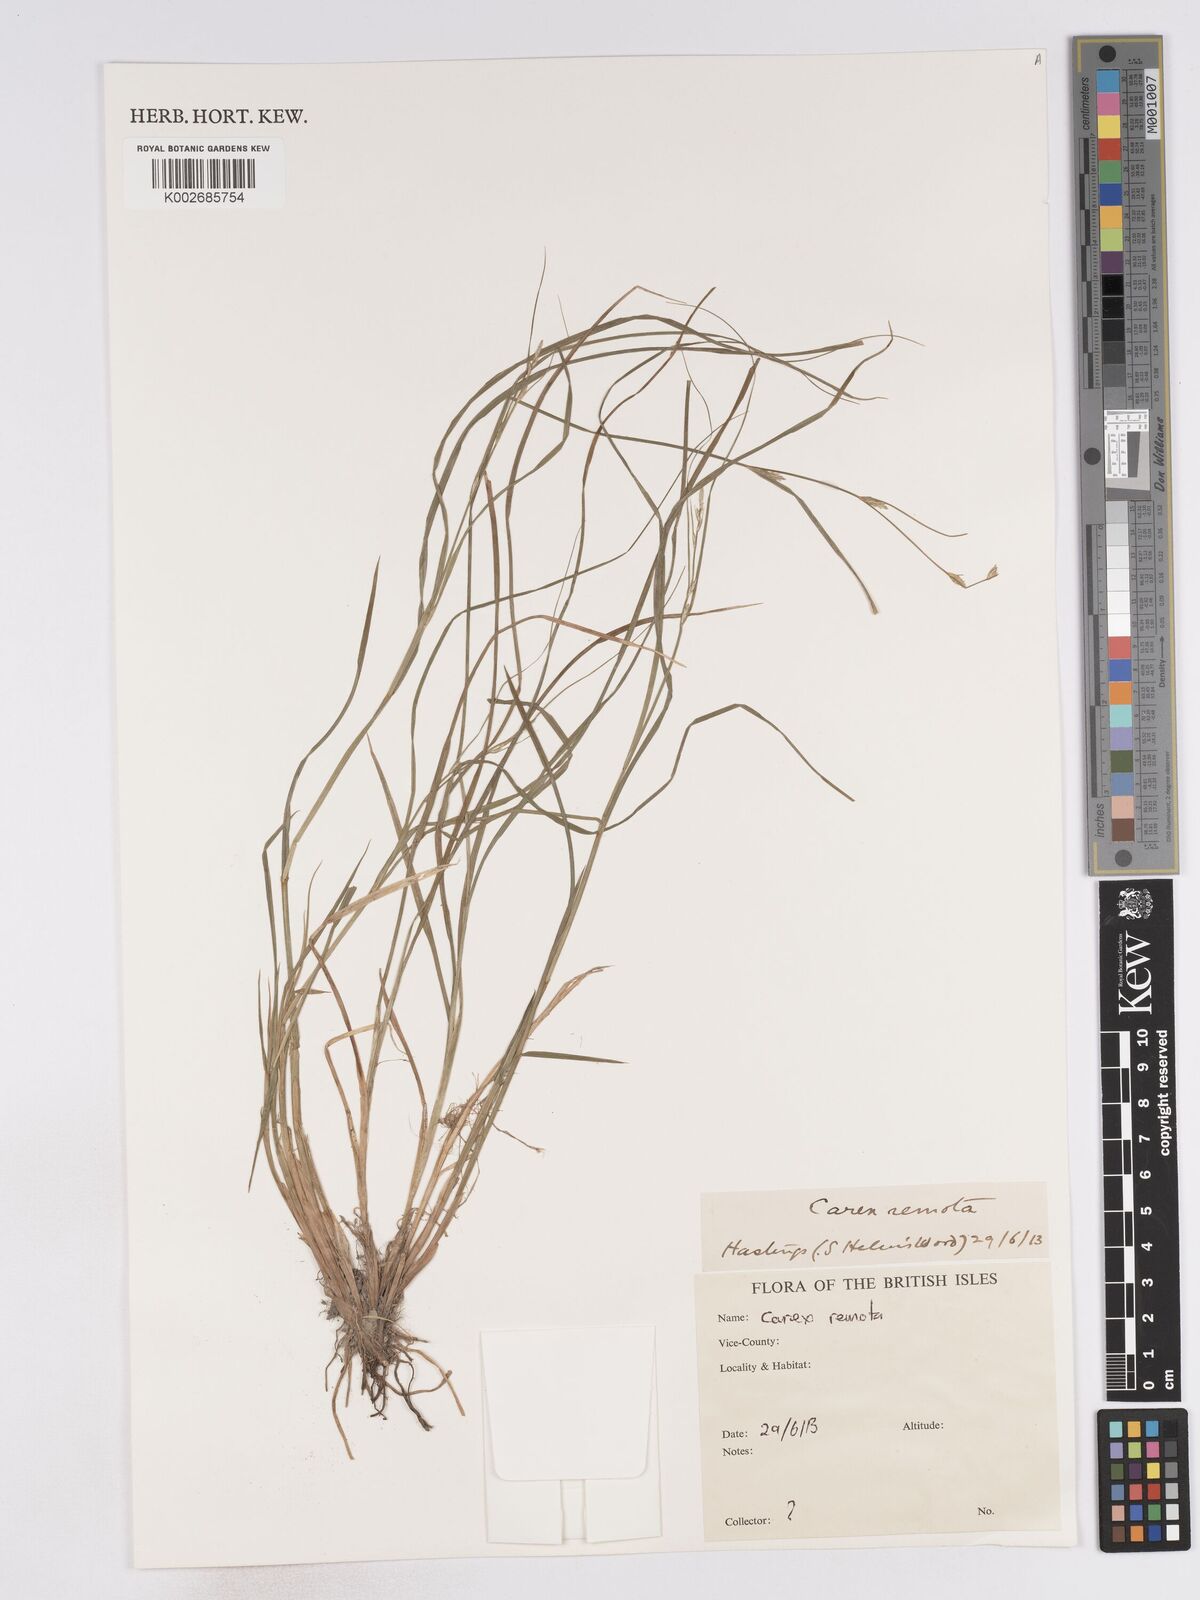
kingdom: Plantae
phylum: Tracheophyta
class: Liliopsida
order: Poales
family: Cyperaceae
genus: Carex
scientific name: Carex remota
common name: Remote sedge
